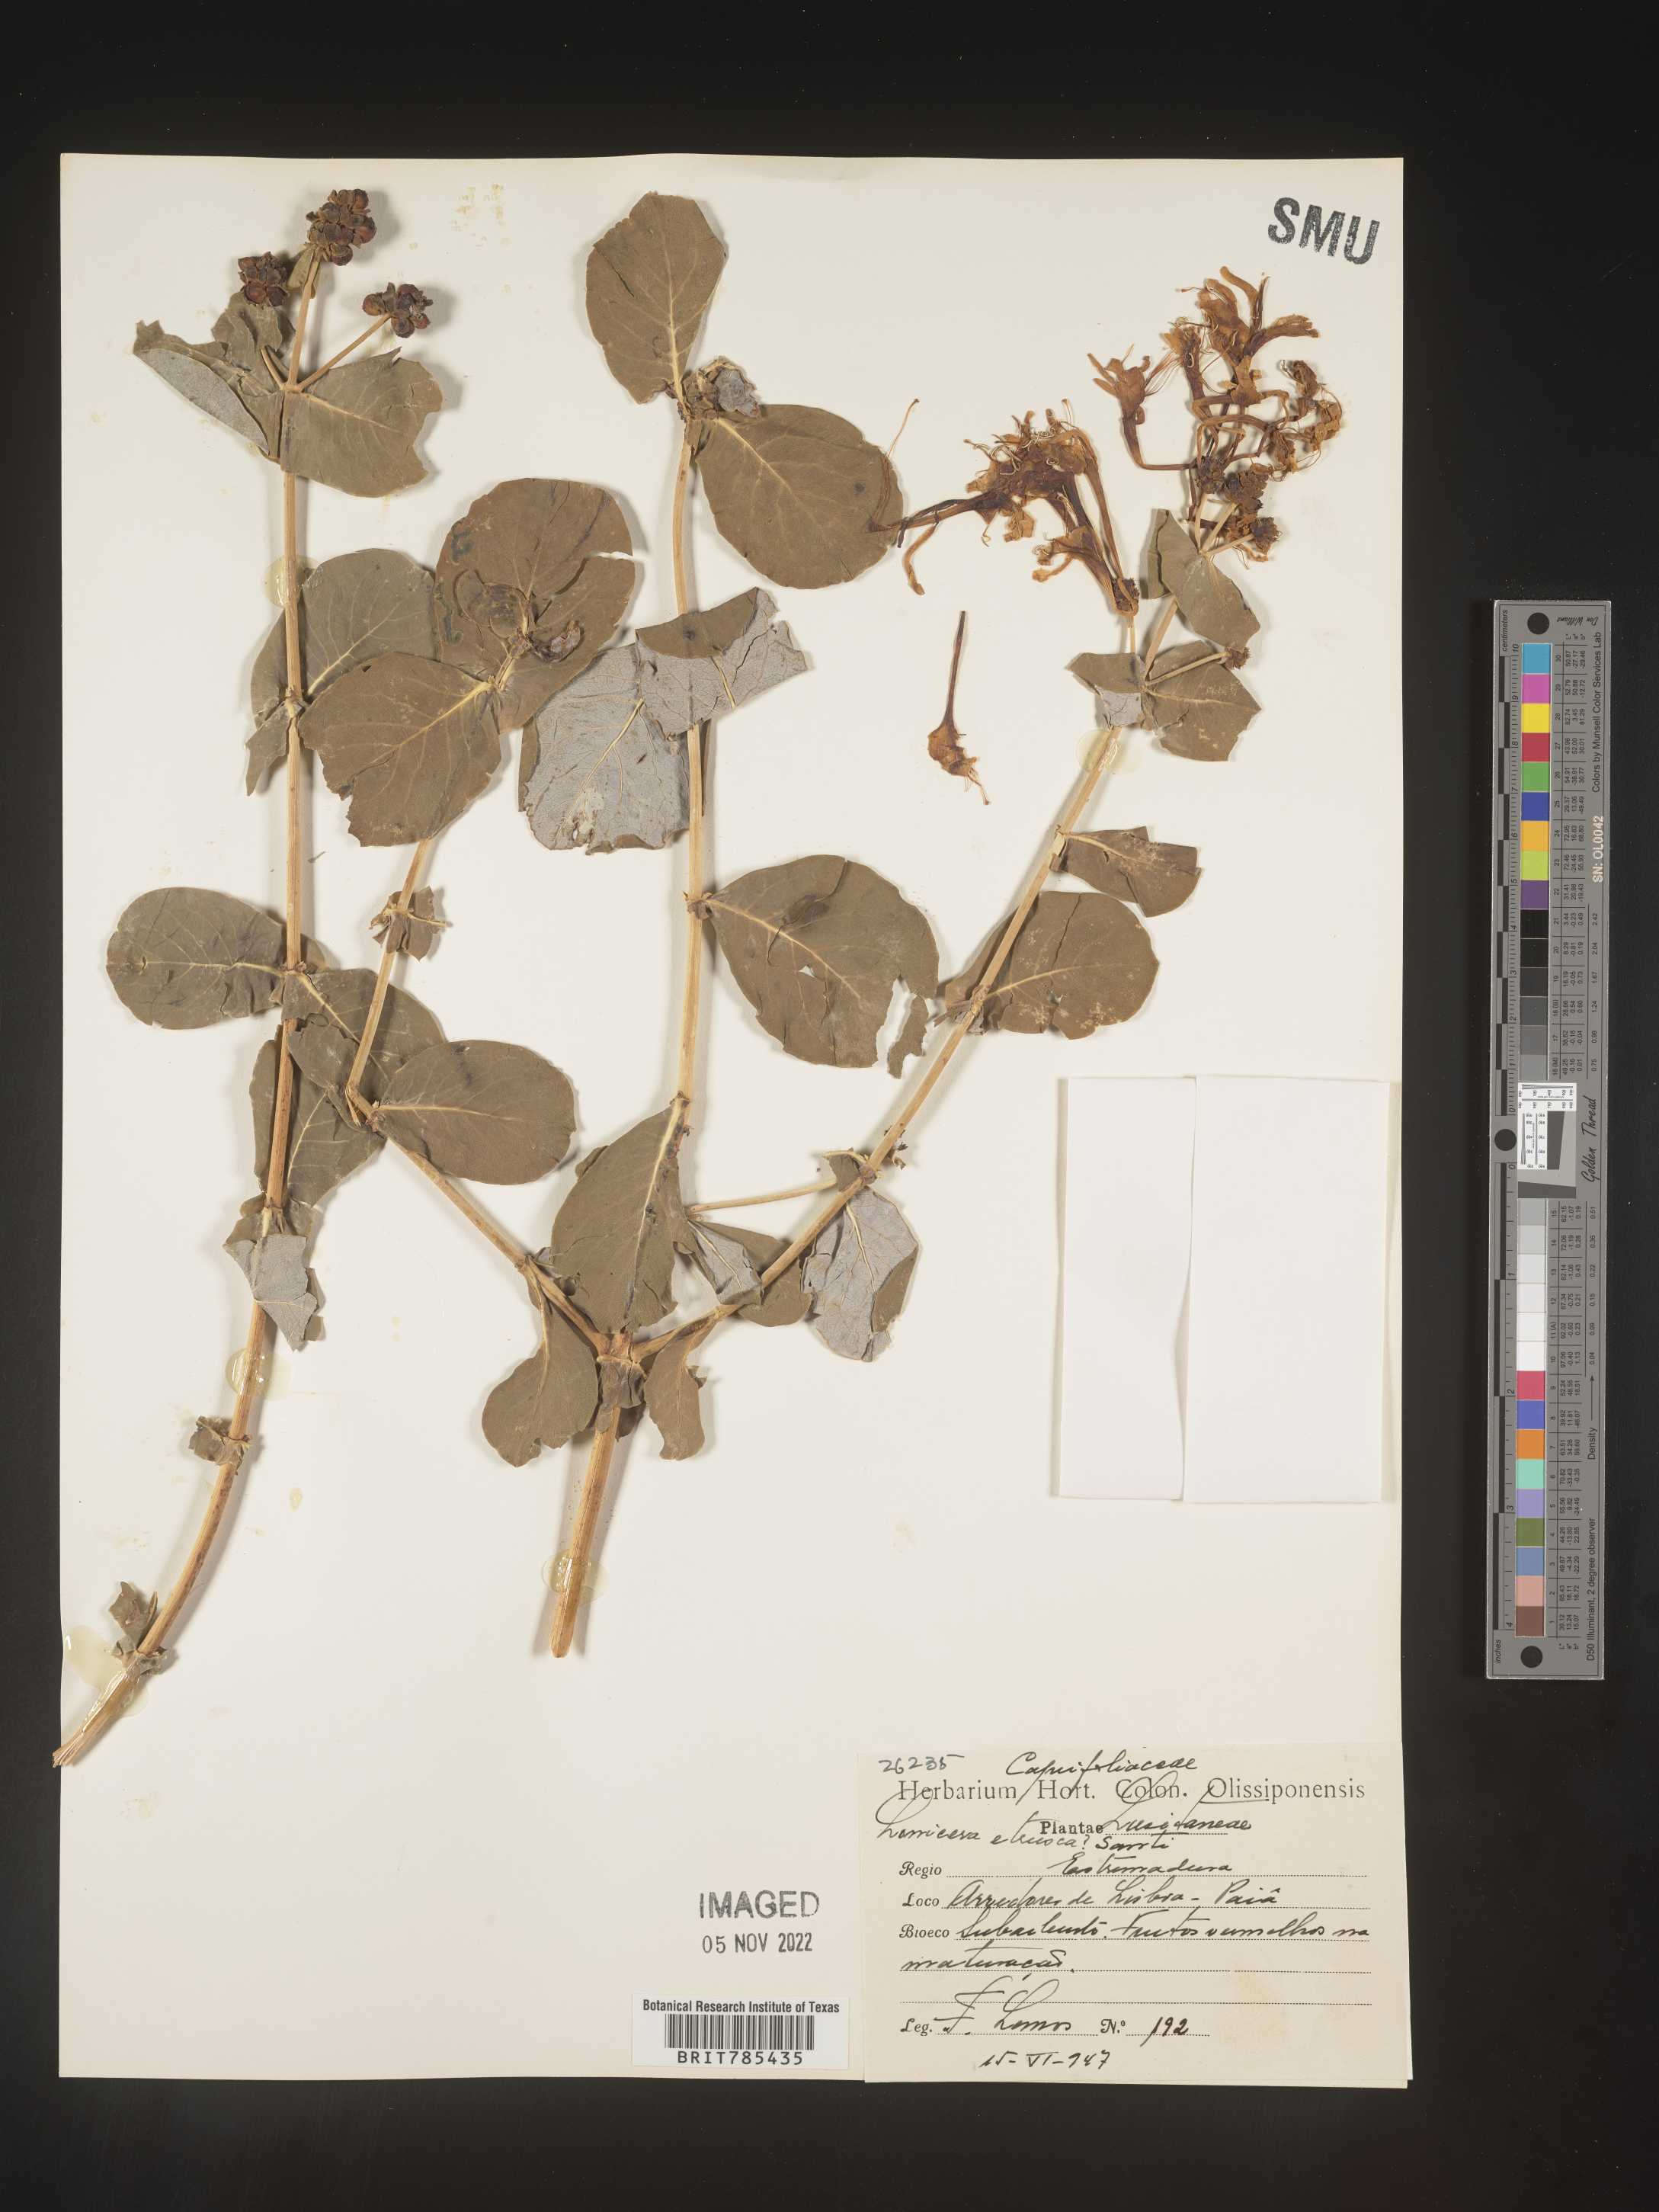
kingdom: Plantae
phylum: Tracheophyta
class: Magnoliopsida
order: Dipsacales
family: Caprifoliaceae
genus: Lonicera
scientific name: Lonicera
